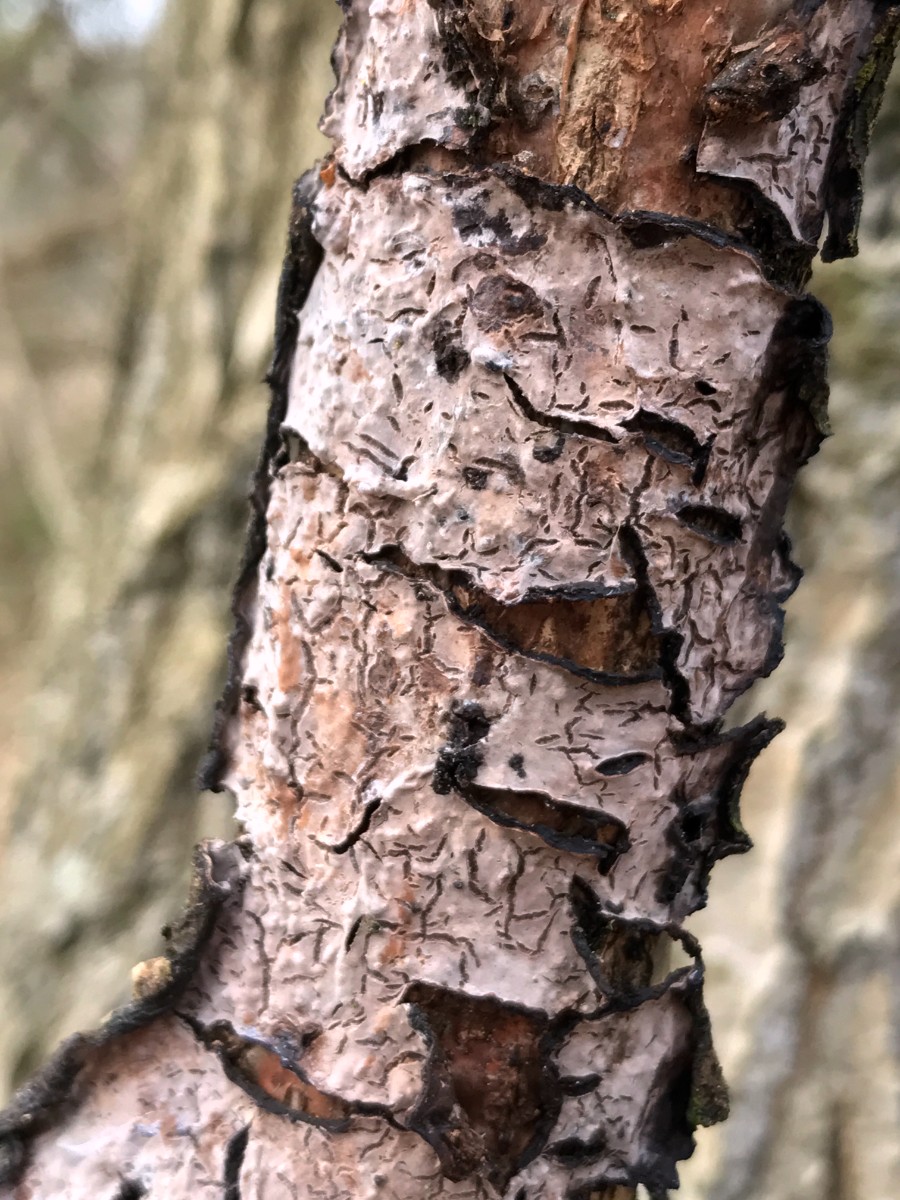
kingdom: Fungi
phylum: Basidiomycota
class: Agaricomycetes
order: Russulales
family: Peniophoraceae
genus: Peniophora
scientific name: Peniophora quercina
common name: ege-voksskind
